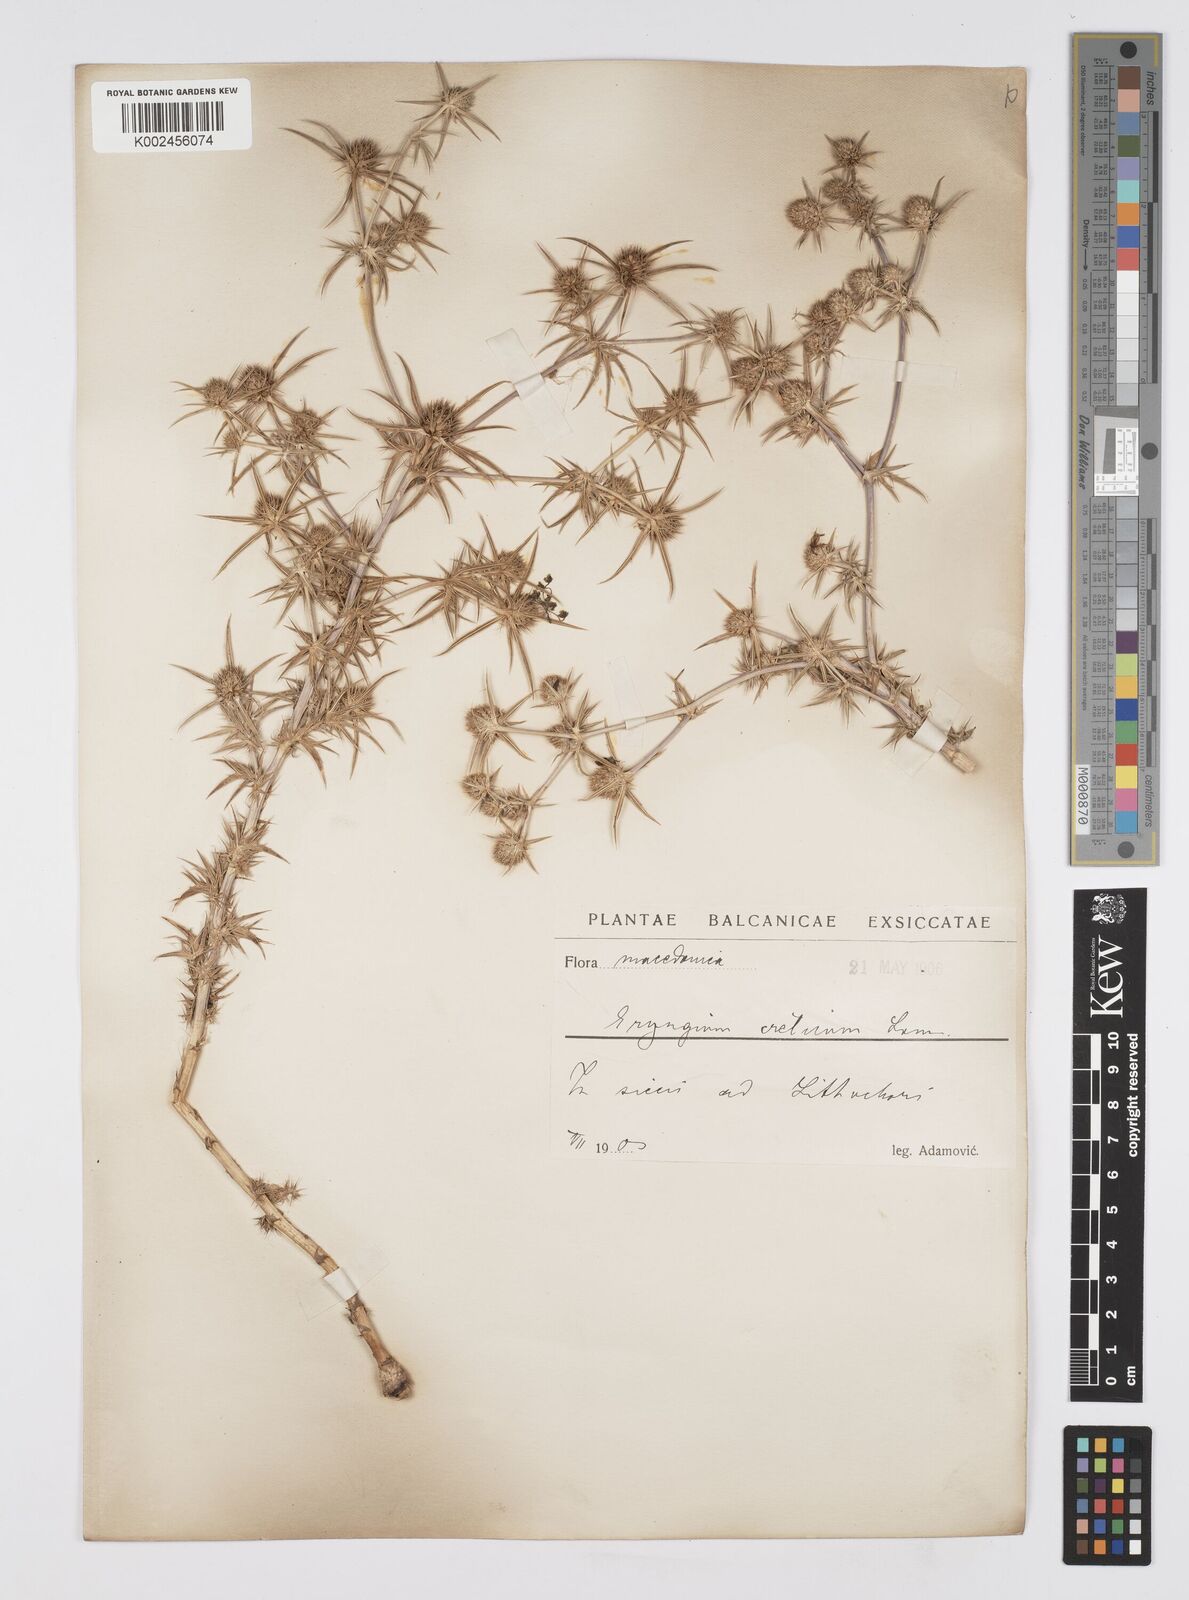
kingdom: Plantae
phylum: Tracheophyta
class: Magnoliopsida
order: Apiales
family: Apiaceae
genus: Eryngium
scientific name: Eryngium creticum
